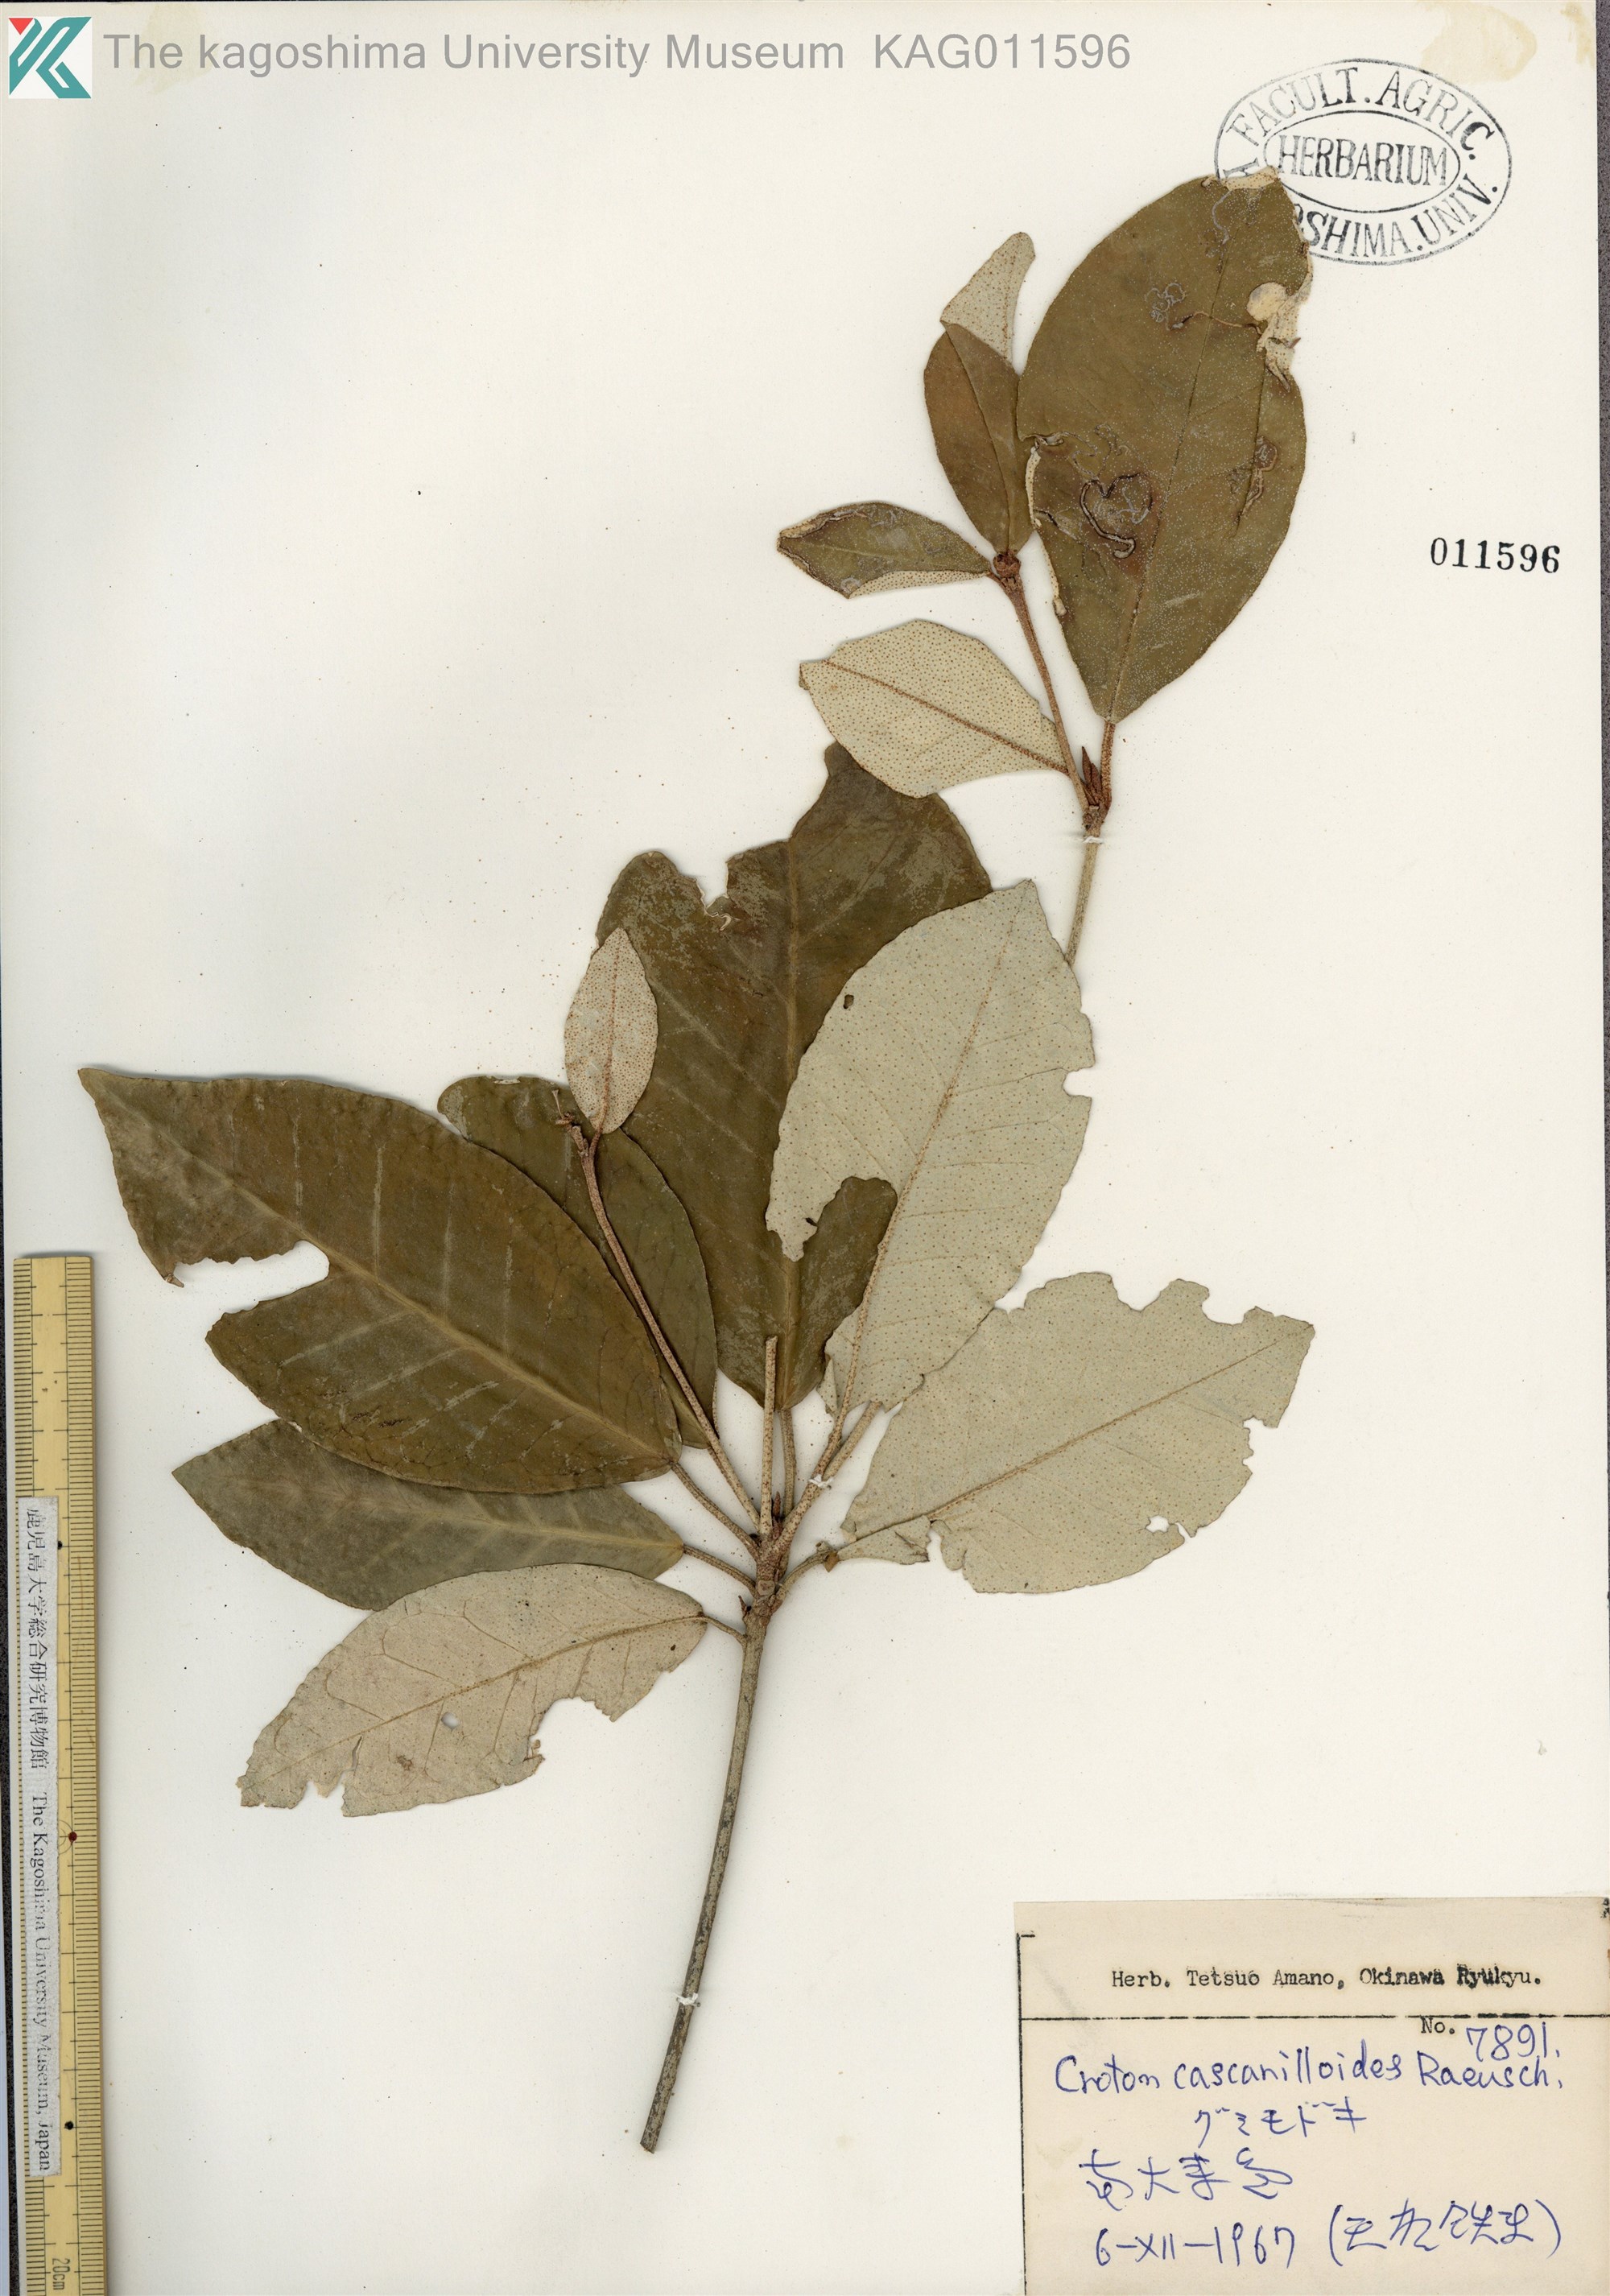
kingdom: Plantae
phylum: Tracheophyta
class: Magnoliopsida
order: Malpighiales
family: Euphorbiaceae
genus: Croton
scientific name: Croton cascarilloides
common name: グミモドキ
